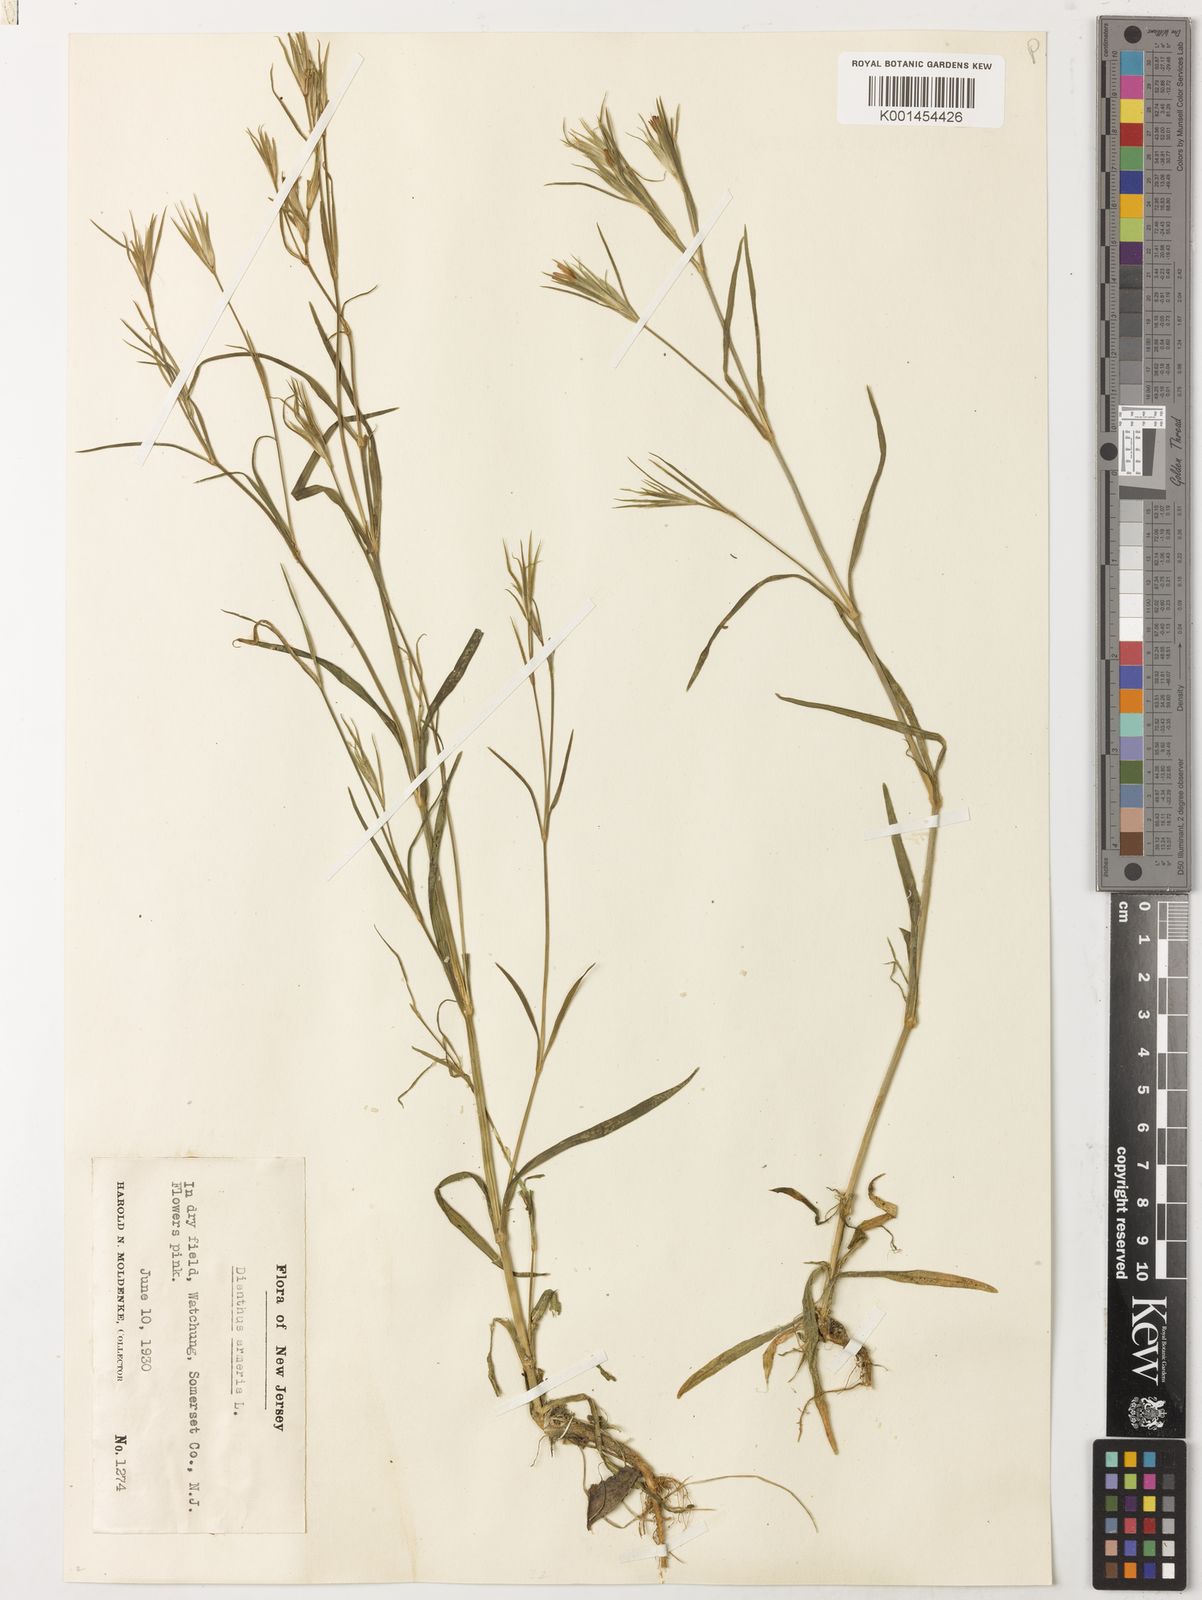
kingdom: Plantae
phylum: Tracheophyta
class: Magnoliopsida
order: Caryophyllales
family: Caryophyllaceae
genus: Dianthus
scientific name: Dianthus armeria
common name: Deptford pink
